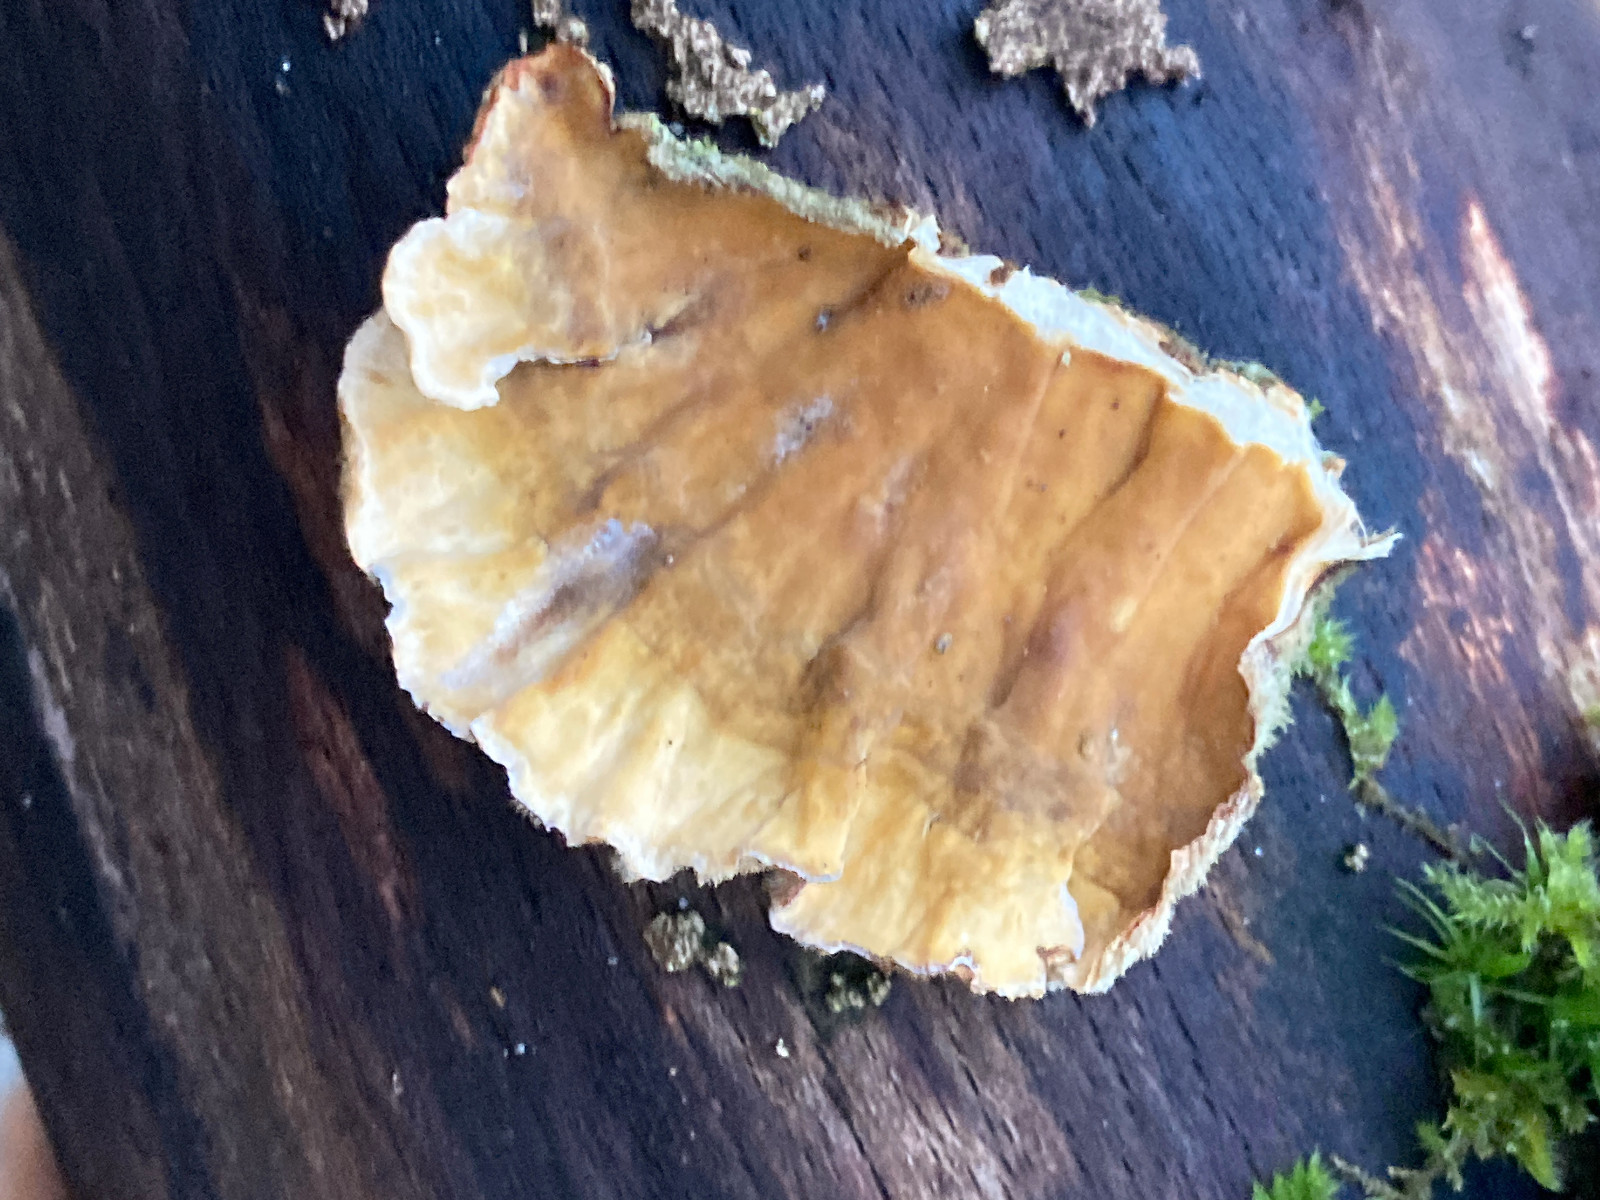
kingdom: Fungi
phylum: Basidiomycota
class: Agaricomycetes
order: Russulales
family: Stereaceae
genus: Stereum
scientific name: Stereum hirsutum
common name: håret lædersvamp
